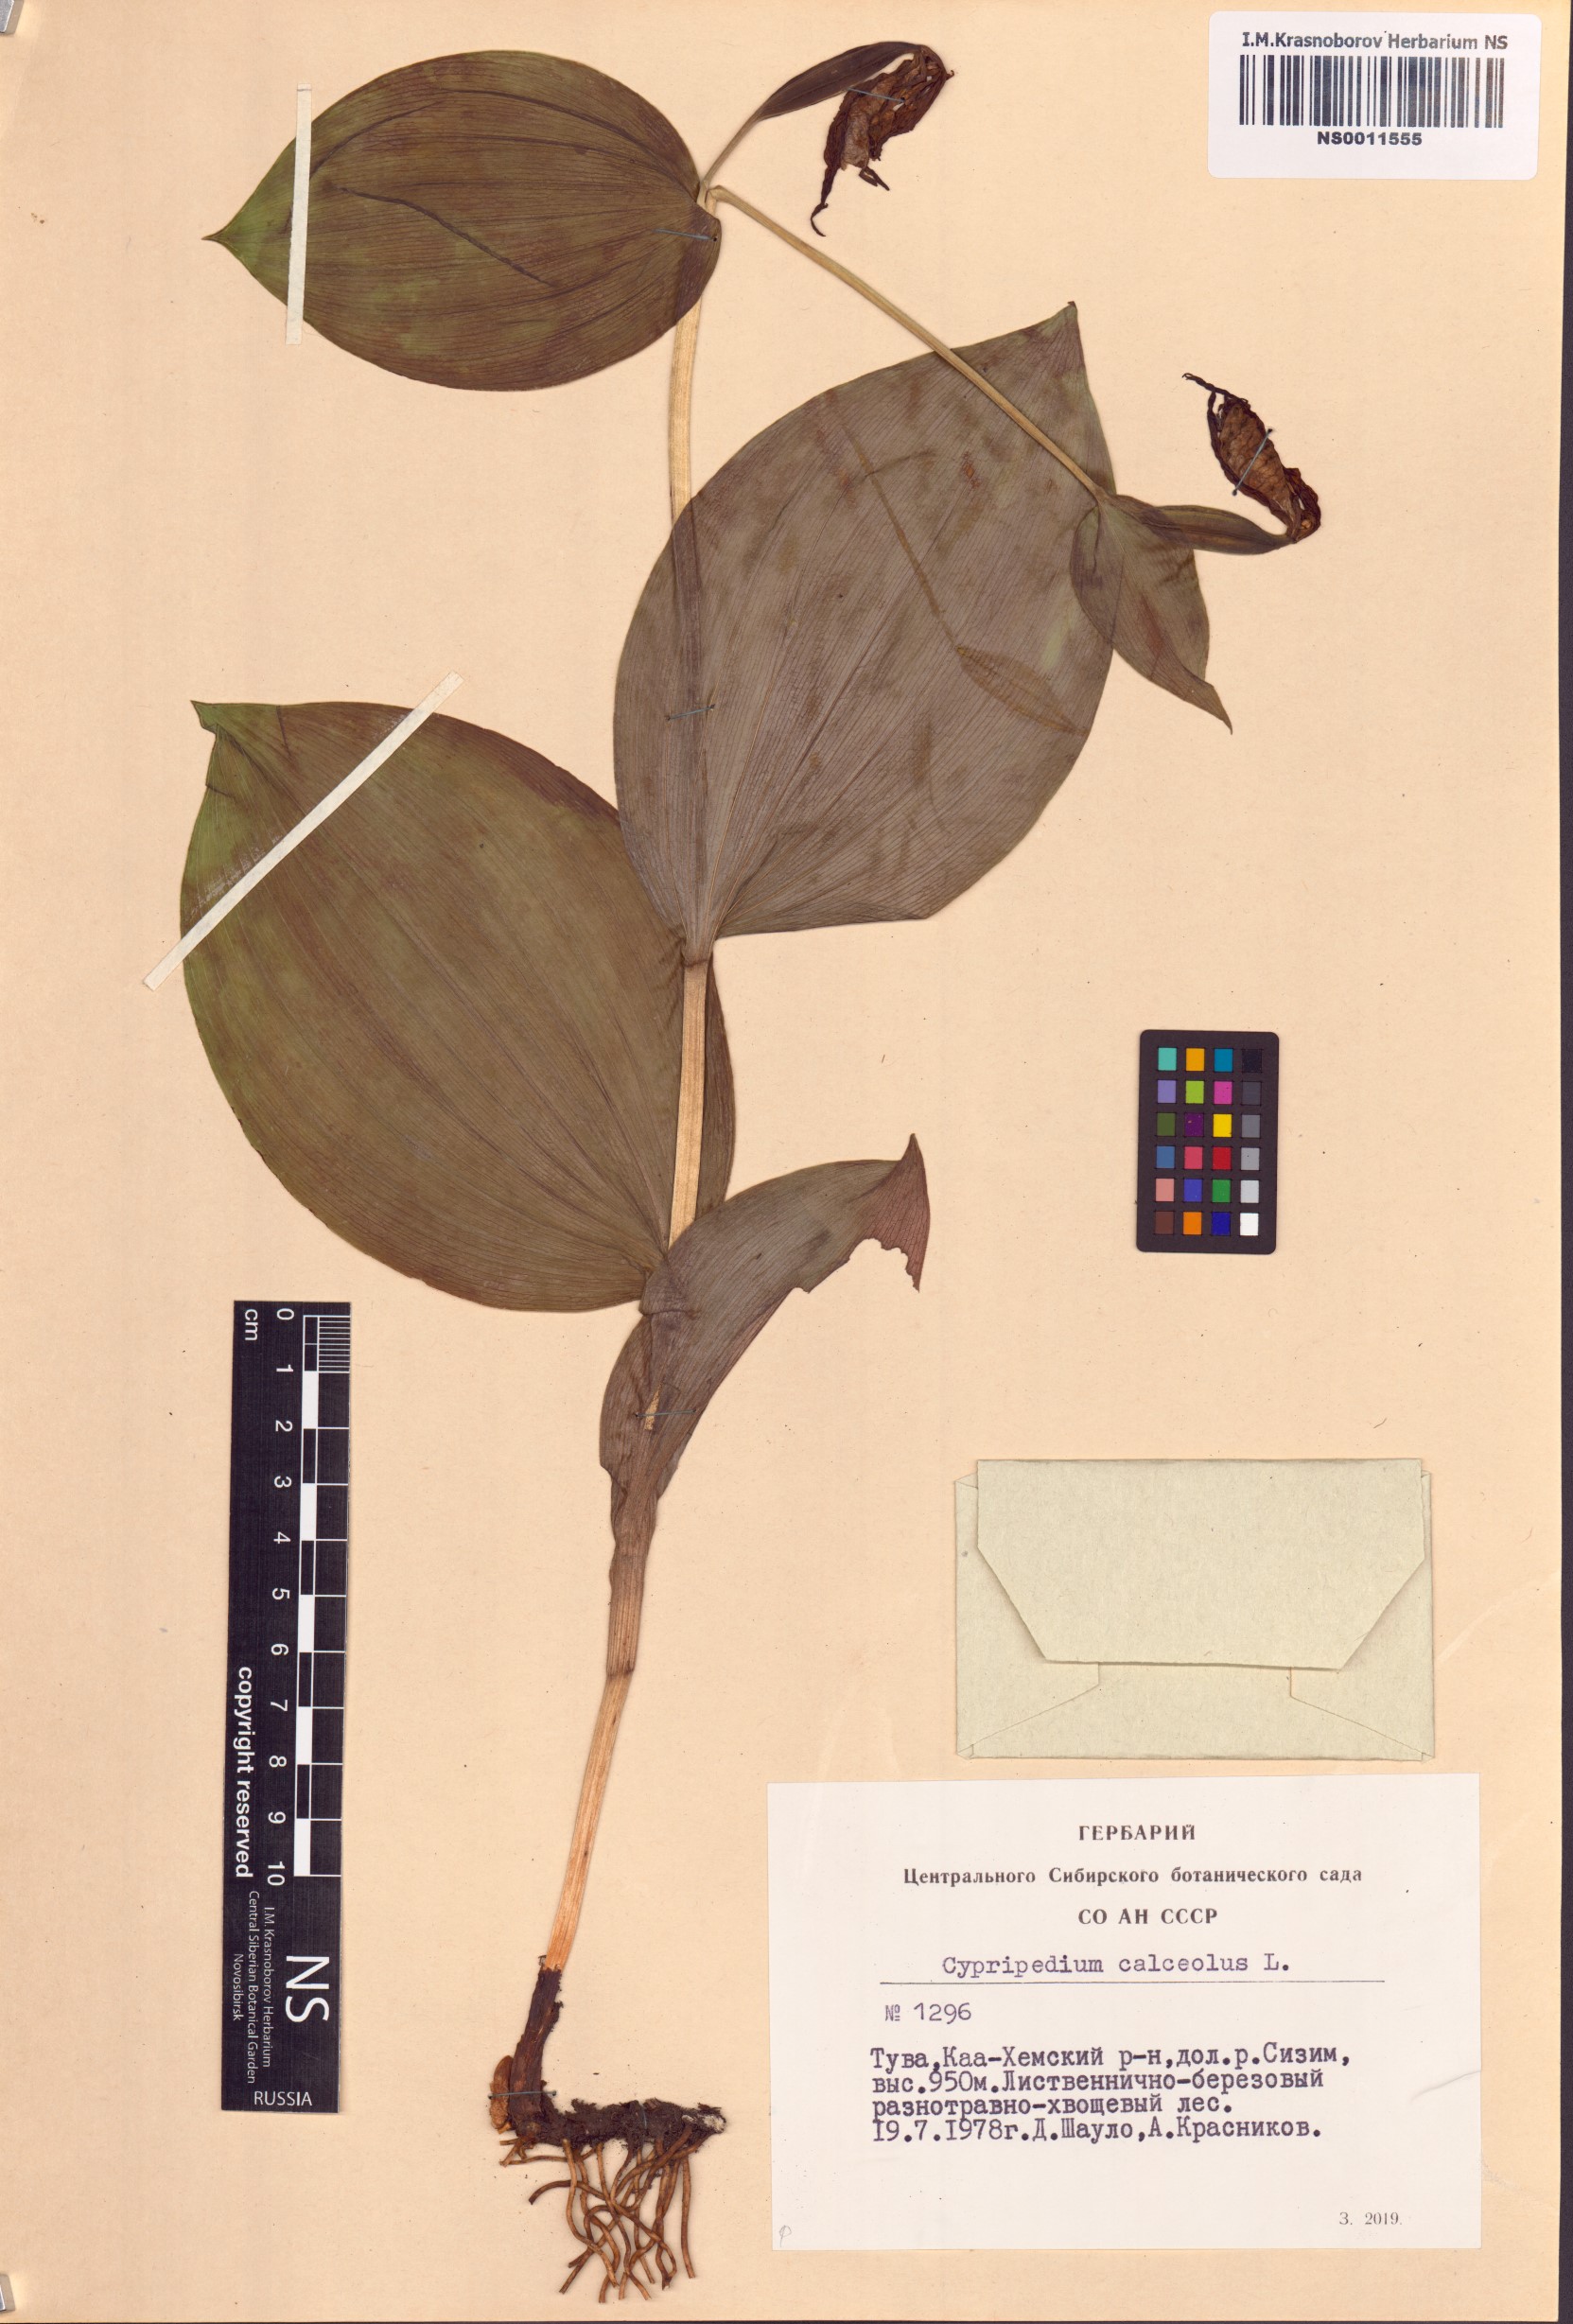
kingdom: Plantae
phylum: Tracheophyta
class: Liliopsida
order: Asparagales
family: Orchidaceae
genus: Cypripedium
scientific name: Cypripedium calceolus
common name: Lady's-slipper
